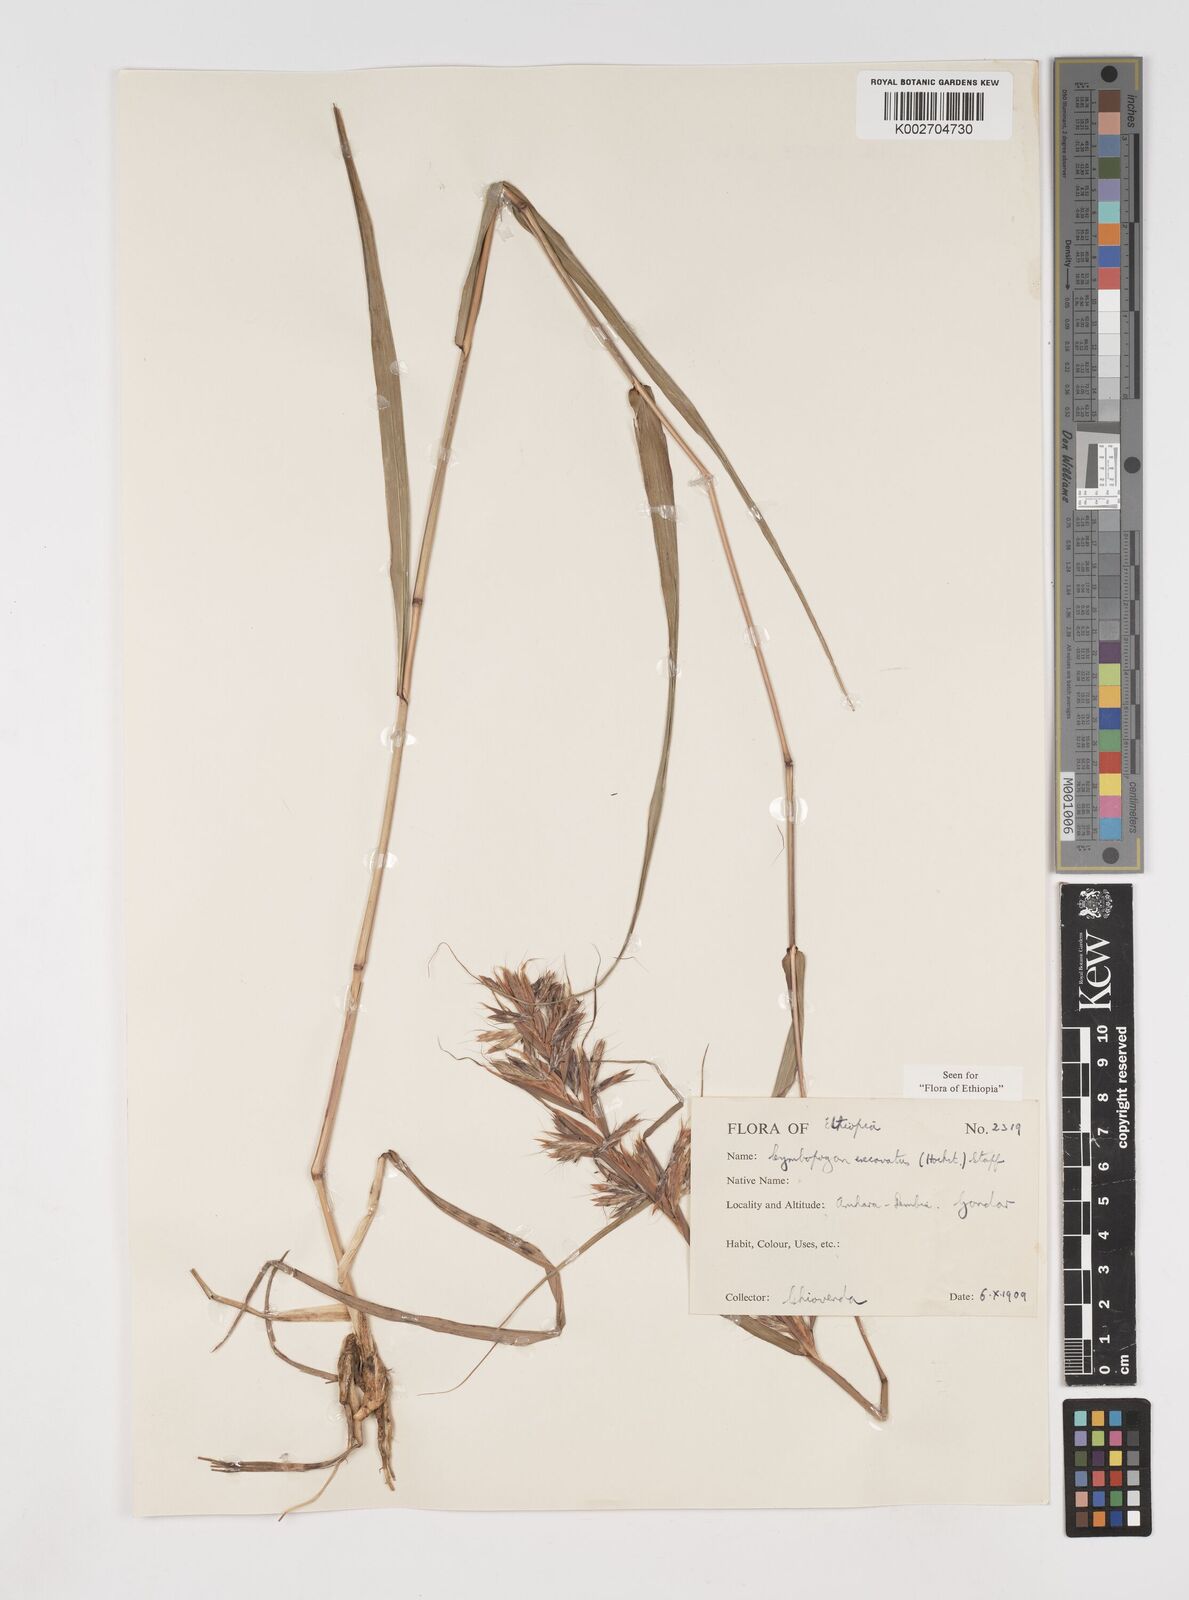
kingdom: Plantae
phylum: Tracheophyta
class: Liliopsida
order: Poales
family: Poaceae
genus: Cymbopogon
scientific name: Cymbopogon caesius
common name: Kachi grass
